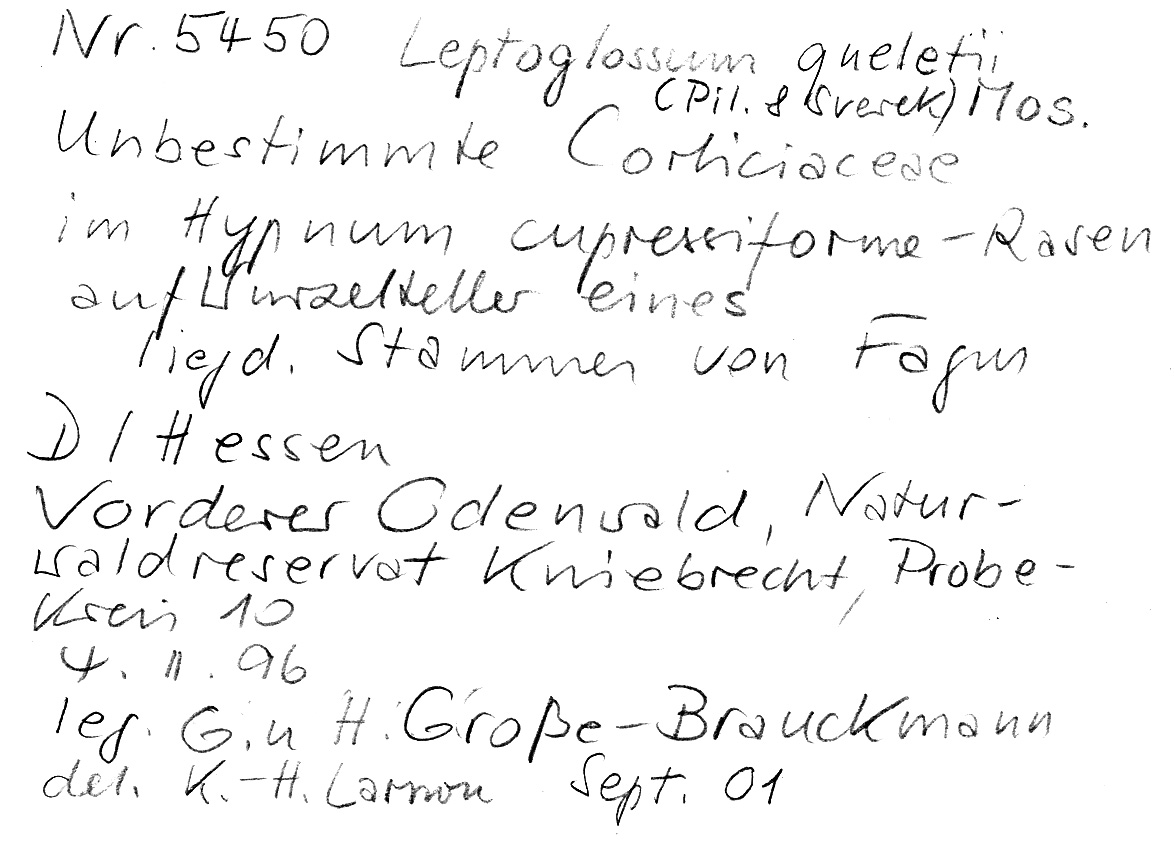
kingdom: Fungi
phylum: Basidiomycota
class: Agaricomycetes
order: Agaricales
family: Hygrophoraceae
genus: Leptoglossum
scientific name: Leptoglossum queletii
